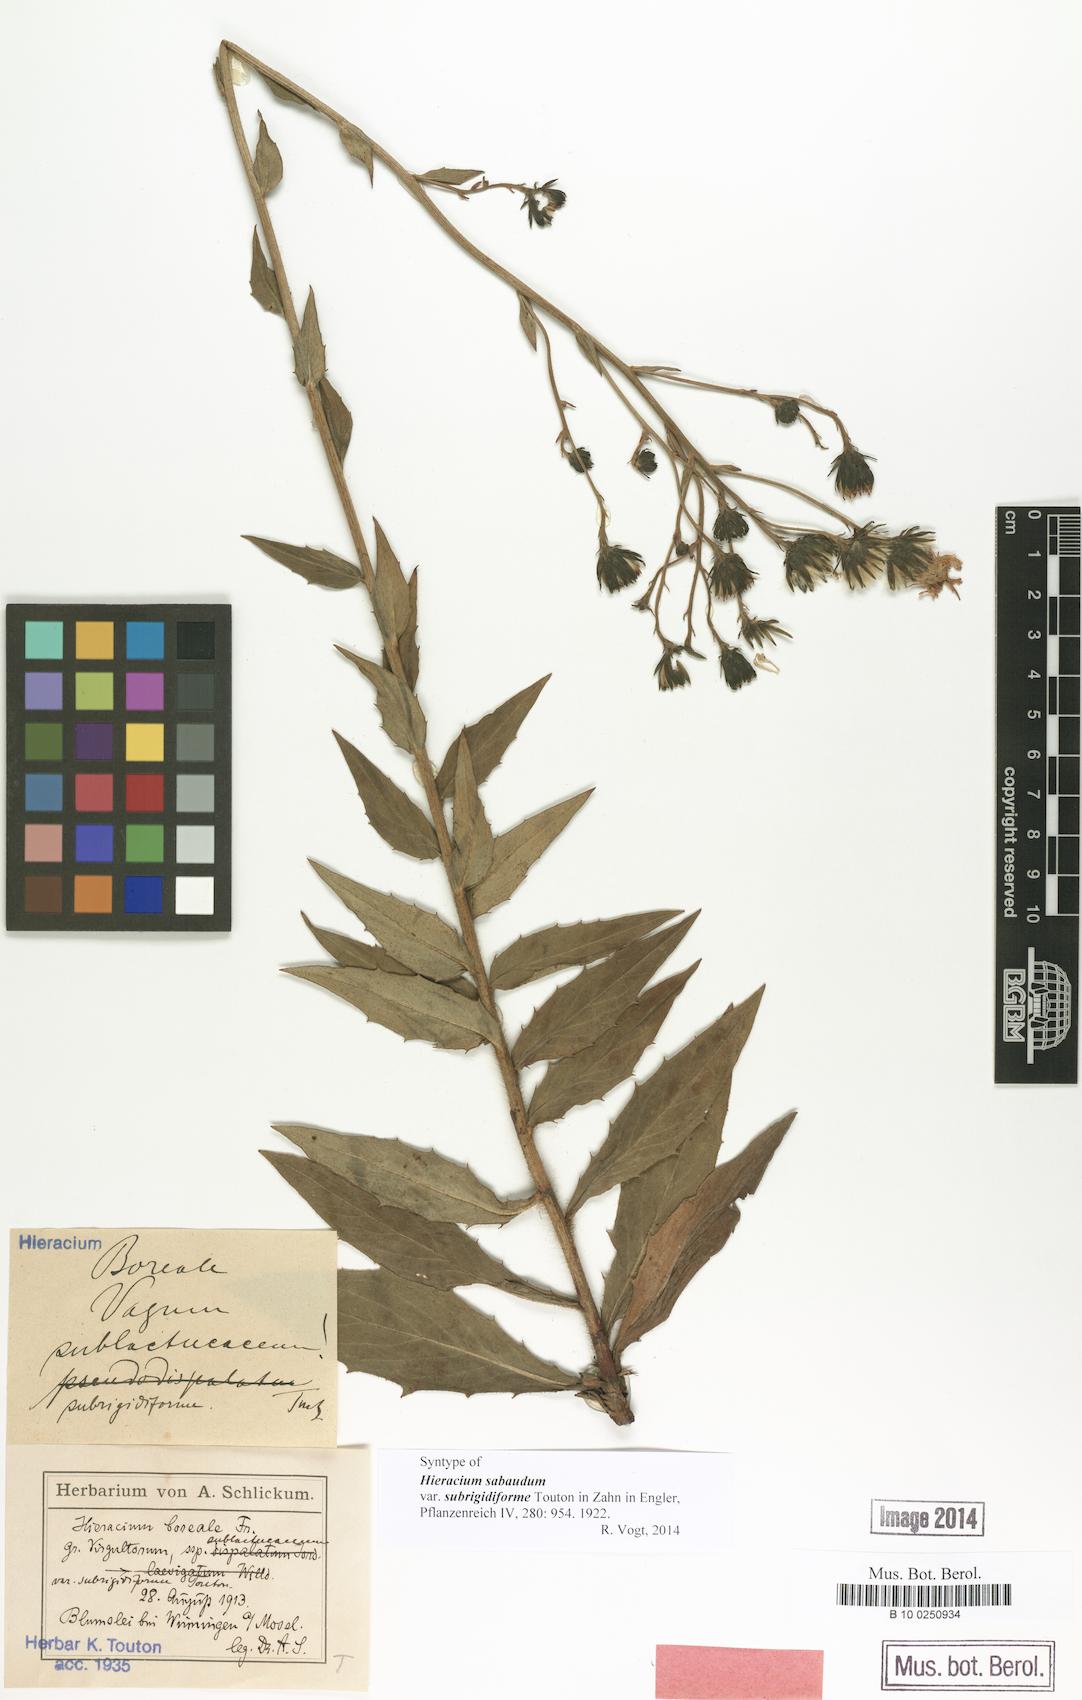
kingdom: Plantae
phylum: Tracheophyta
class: Magnoliopsida
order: Asterales
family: Asteraceae
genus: Hieracium
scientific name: Hieracium sabaudum
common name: New england hawkweed
